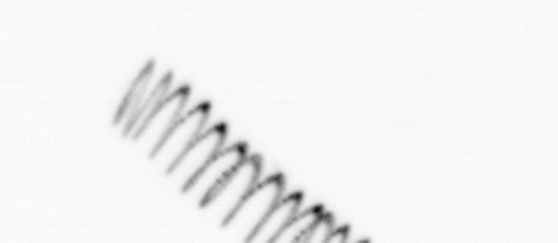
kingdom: Chromista
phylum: Ochrophyta
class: Bacillariophyceae
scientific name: Bacillariophyceae
